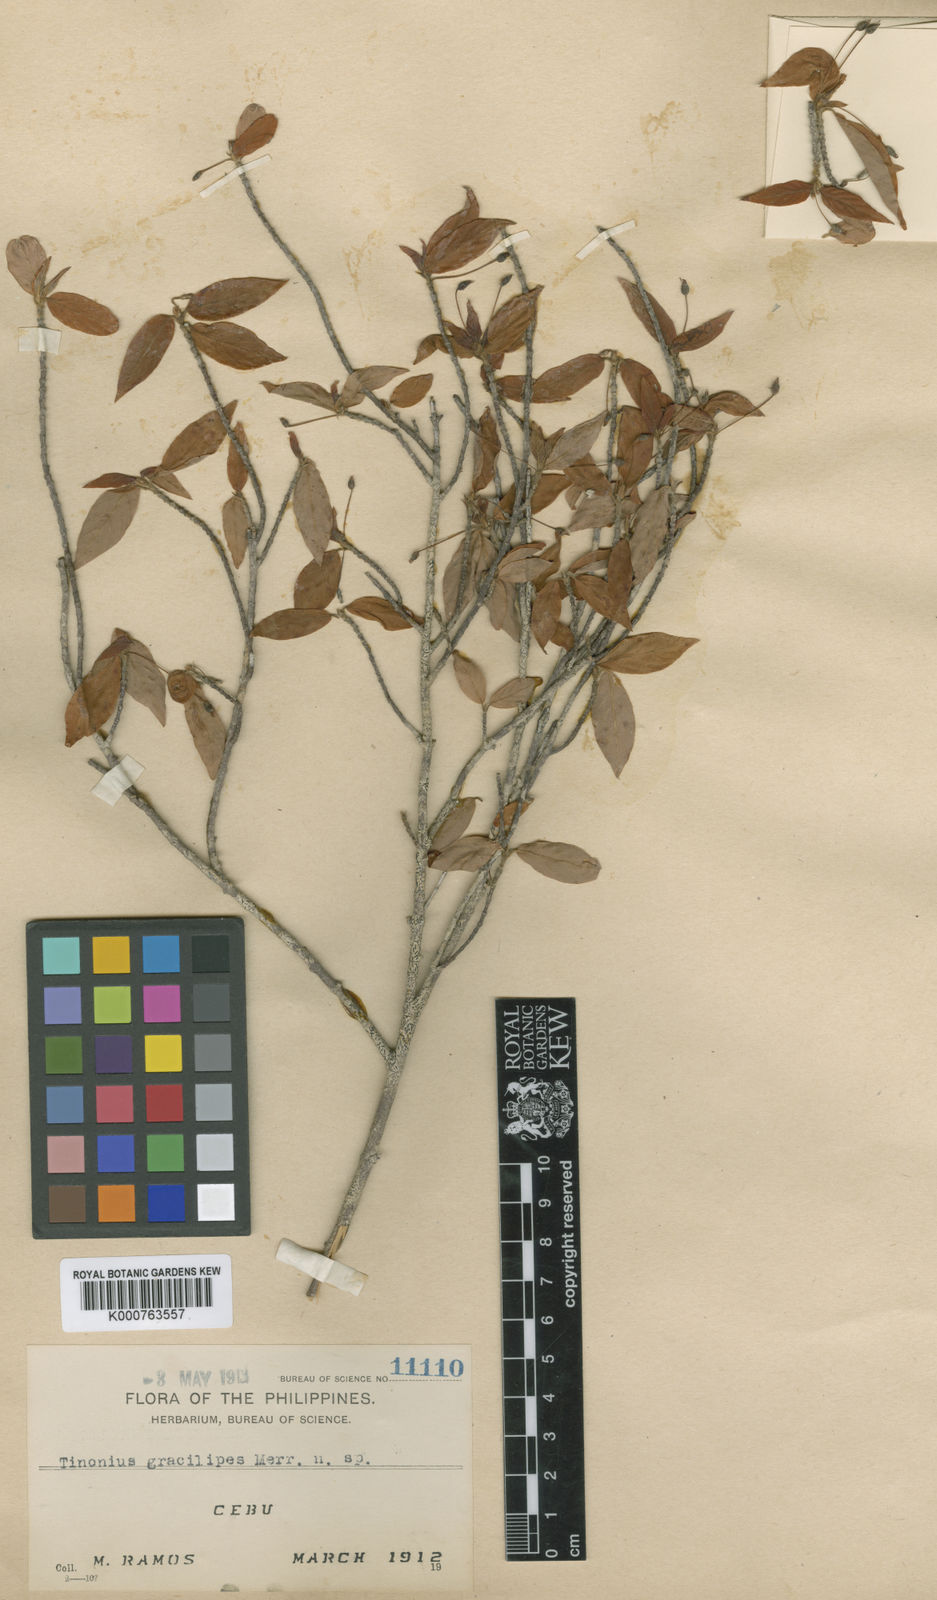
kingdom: Plantae
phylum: Tracheophyta
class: Magnoliopsida
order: Gentianales
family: Rubiaceae
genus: Timonius
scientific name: Timonius gracilipes
